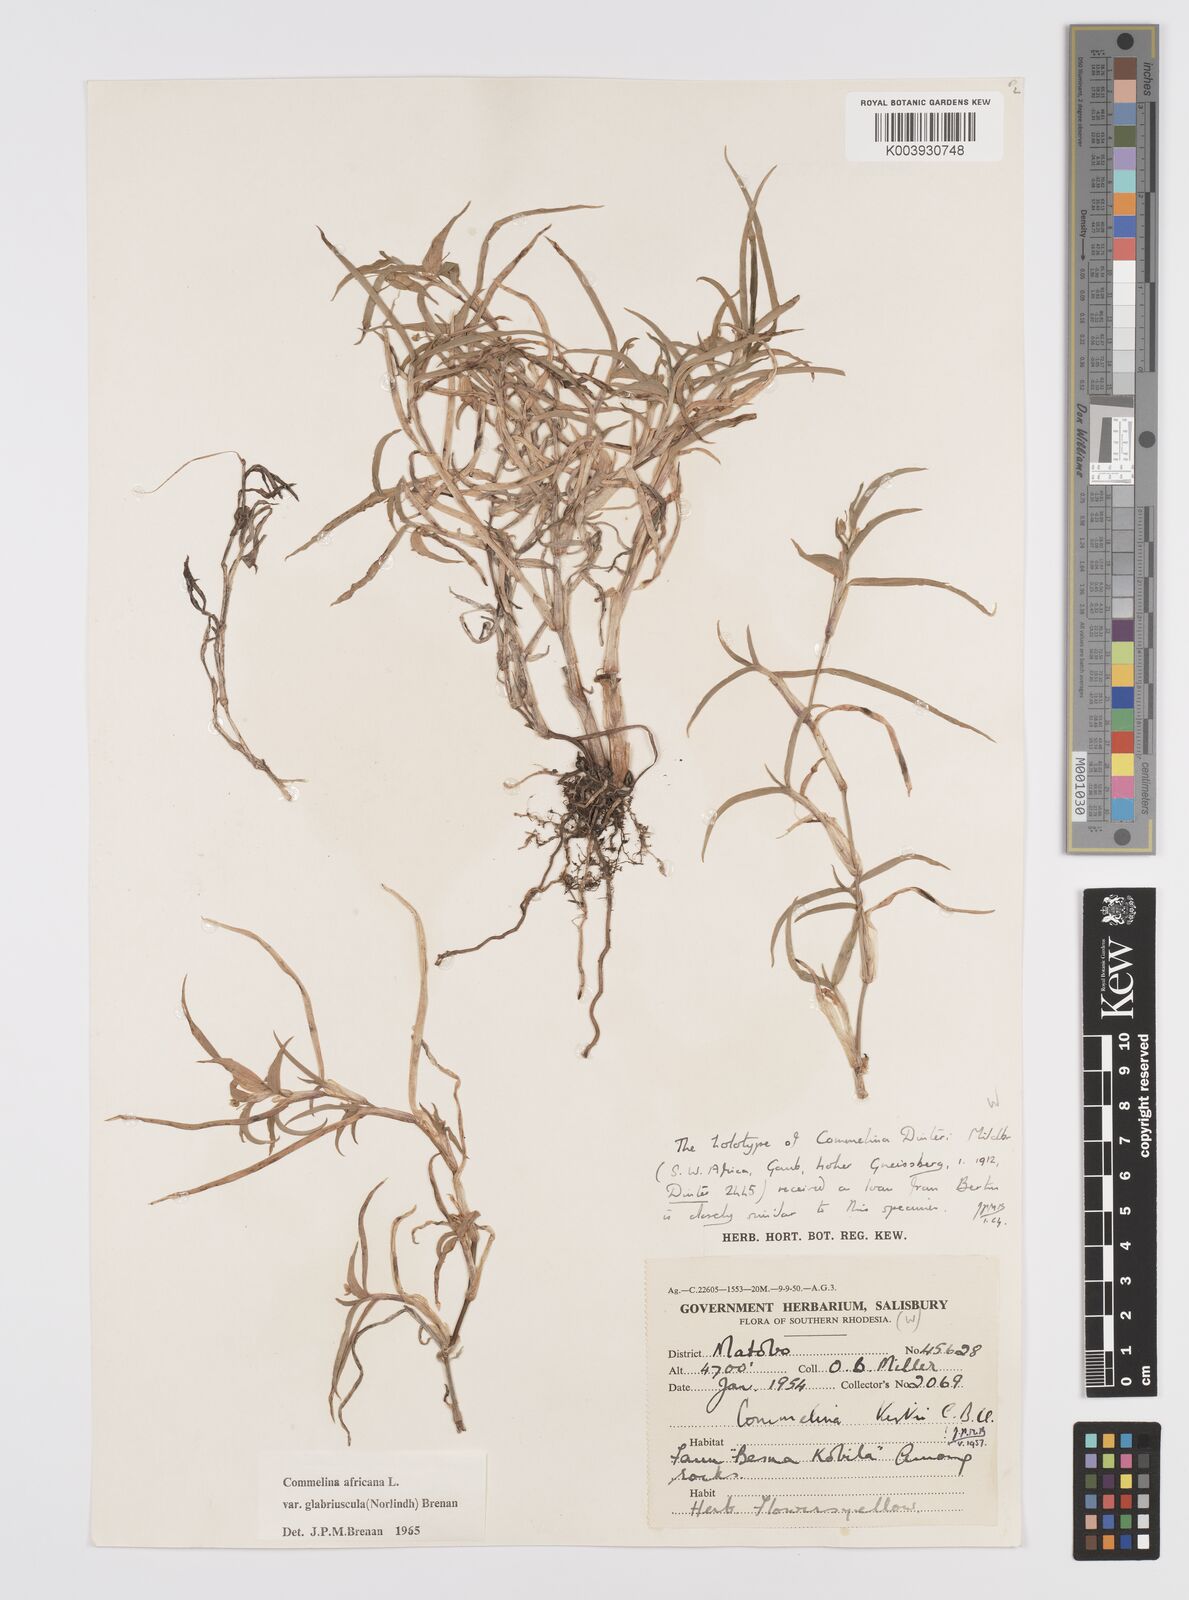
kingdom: Plantae
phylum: Tracheophyta
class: Liliopsida
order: Commelinales
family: Commelinaceae
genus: Commelina
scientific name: Commelina africana
